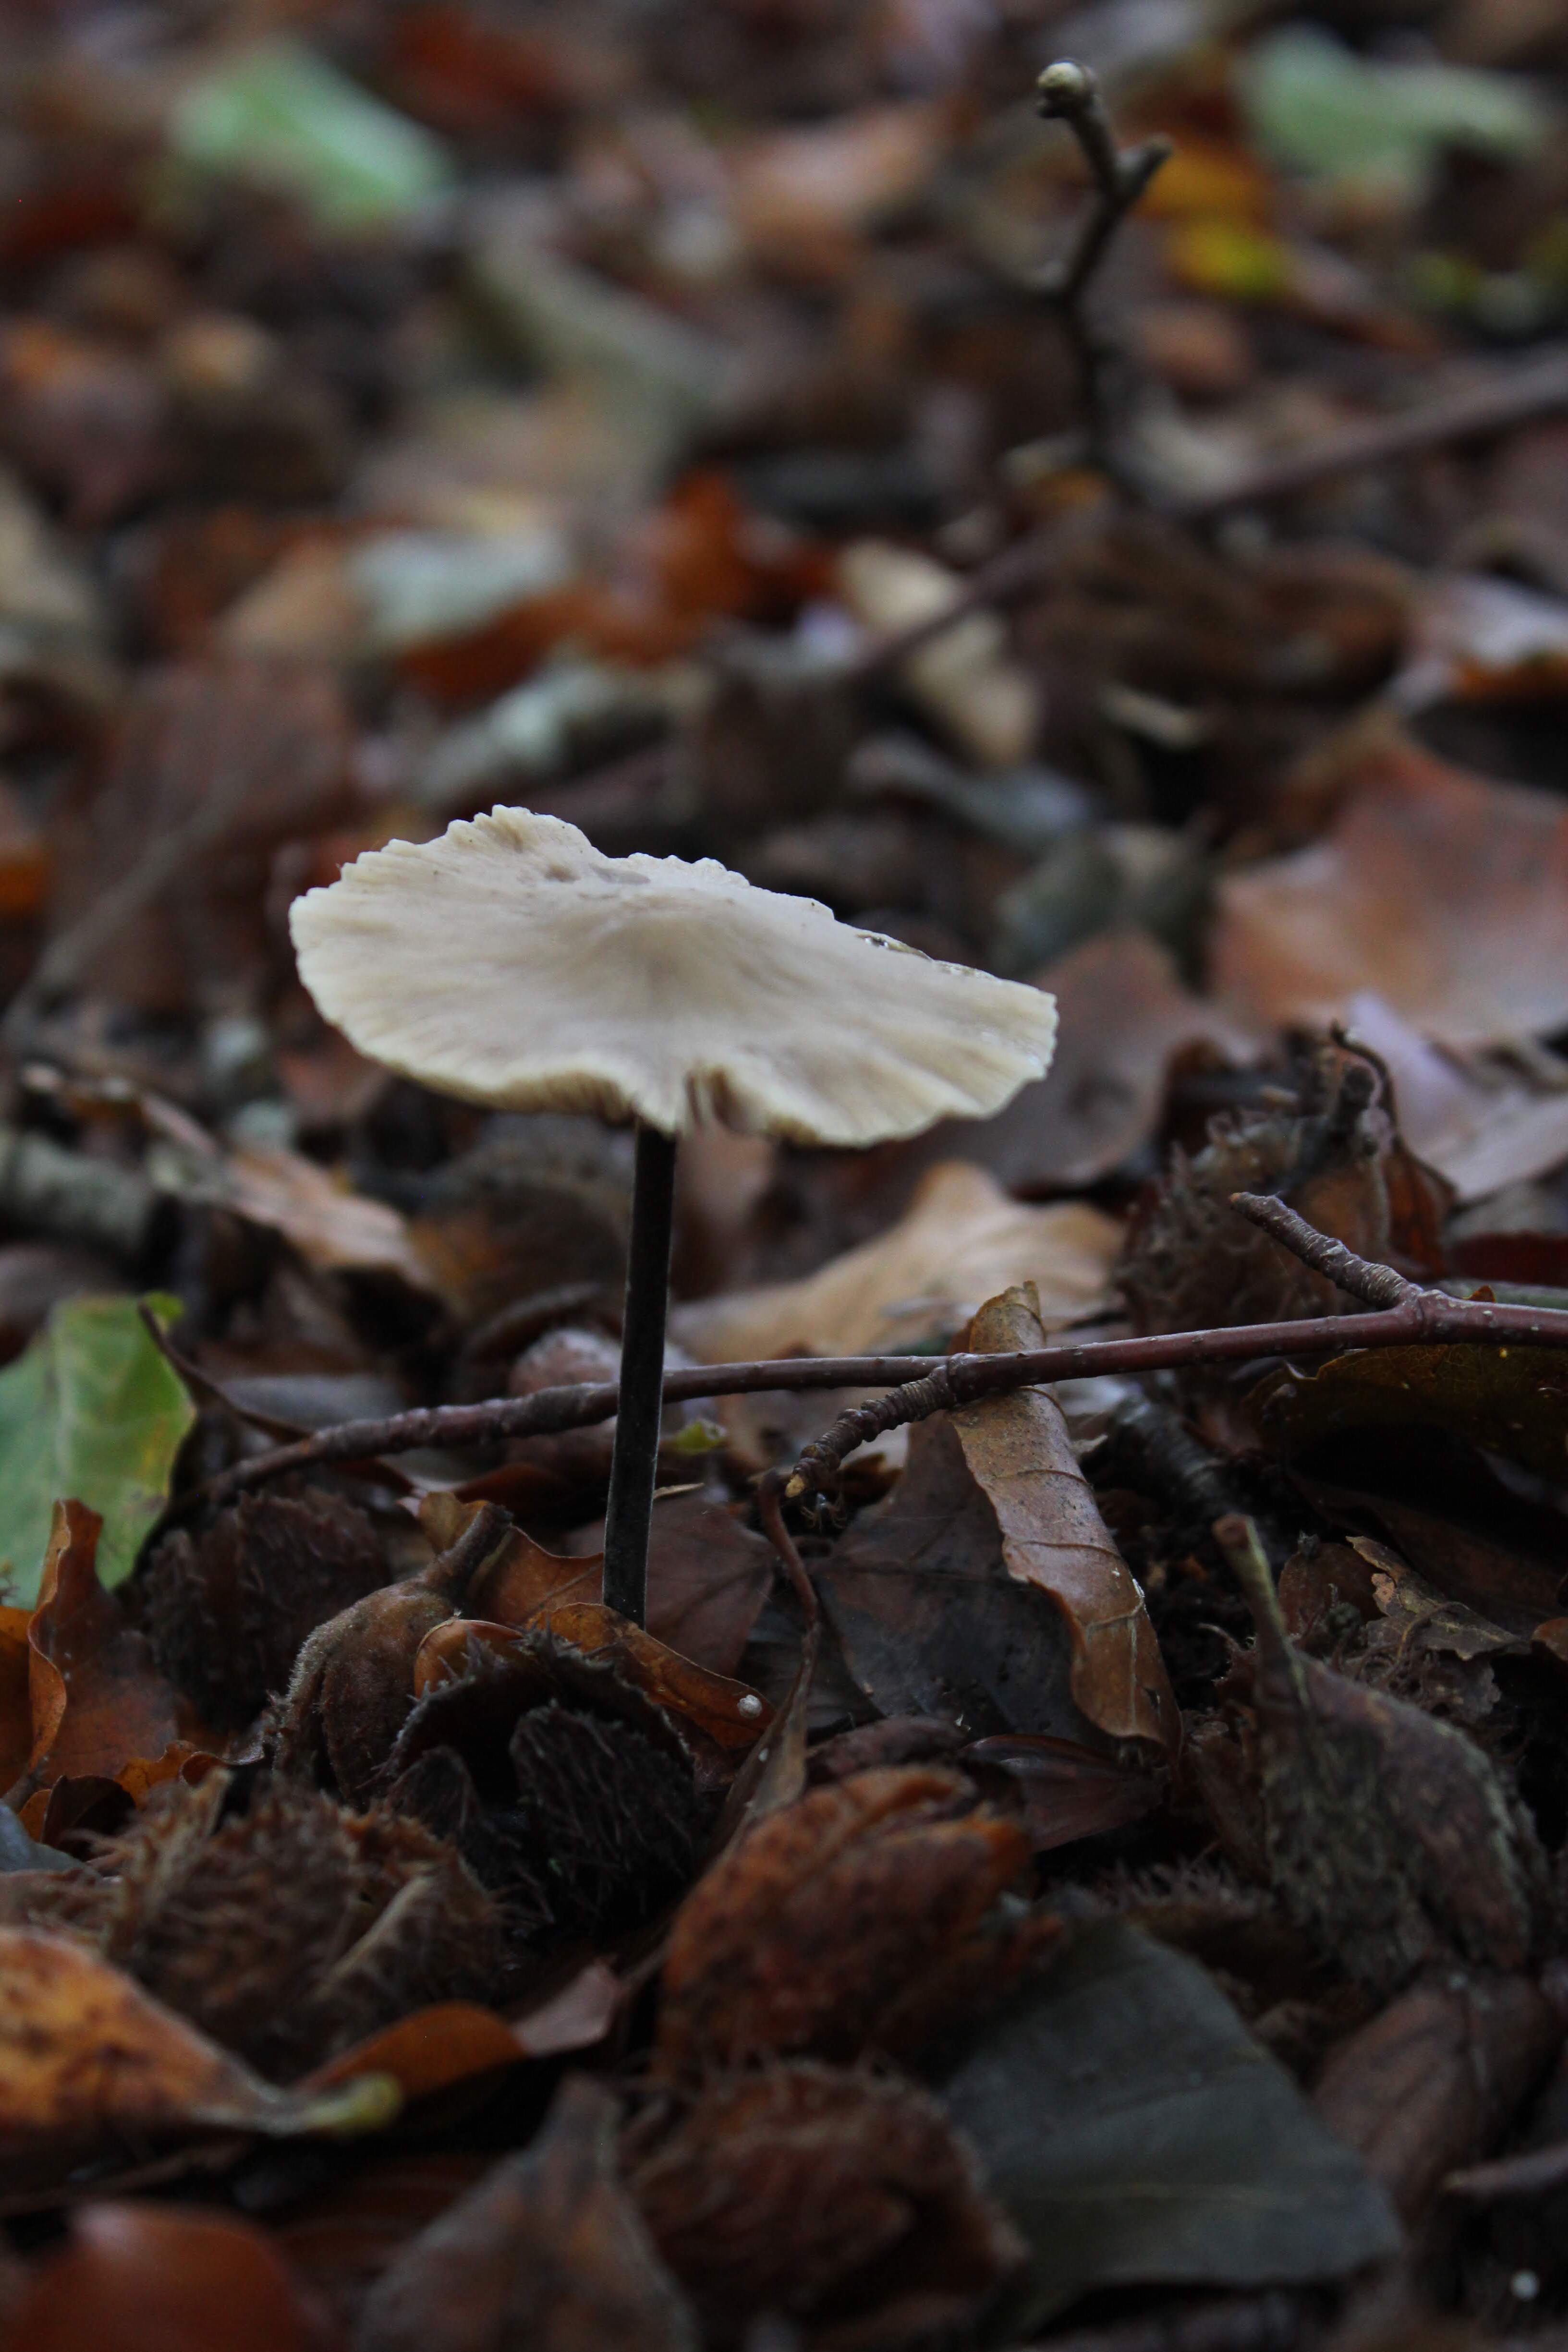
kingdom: Fungi
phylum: Basidiomycota
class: Agaricomycetes
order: Agaricales
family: Omphalotaceae
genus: Mycetinis
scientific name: Mycetinis alliaceus
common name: stor løghat
